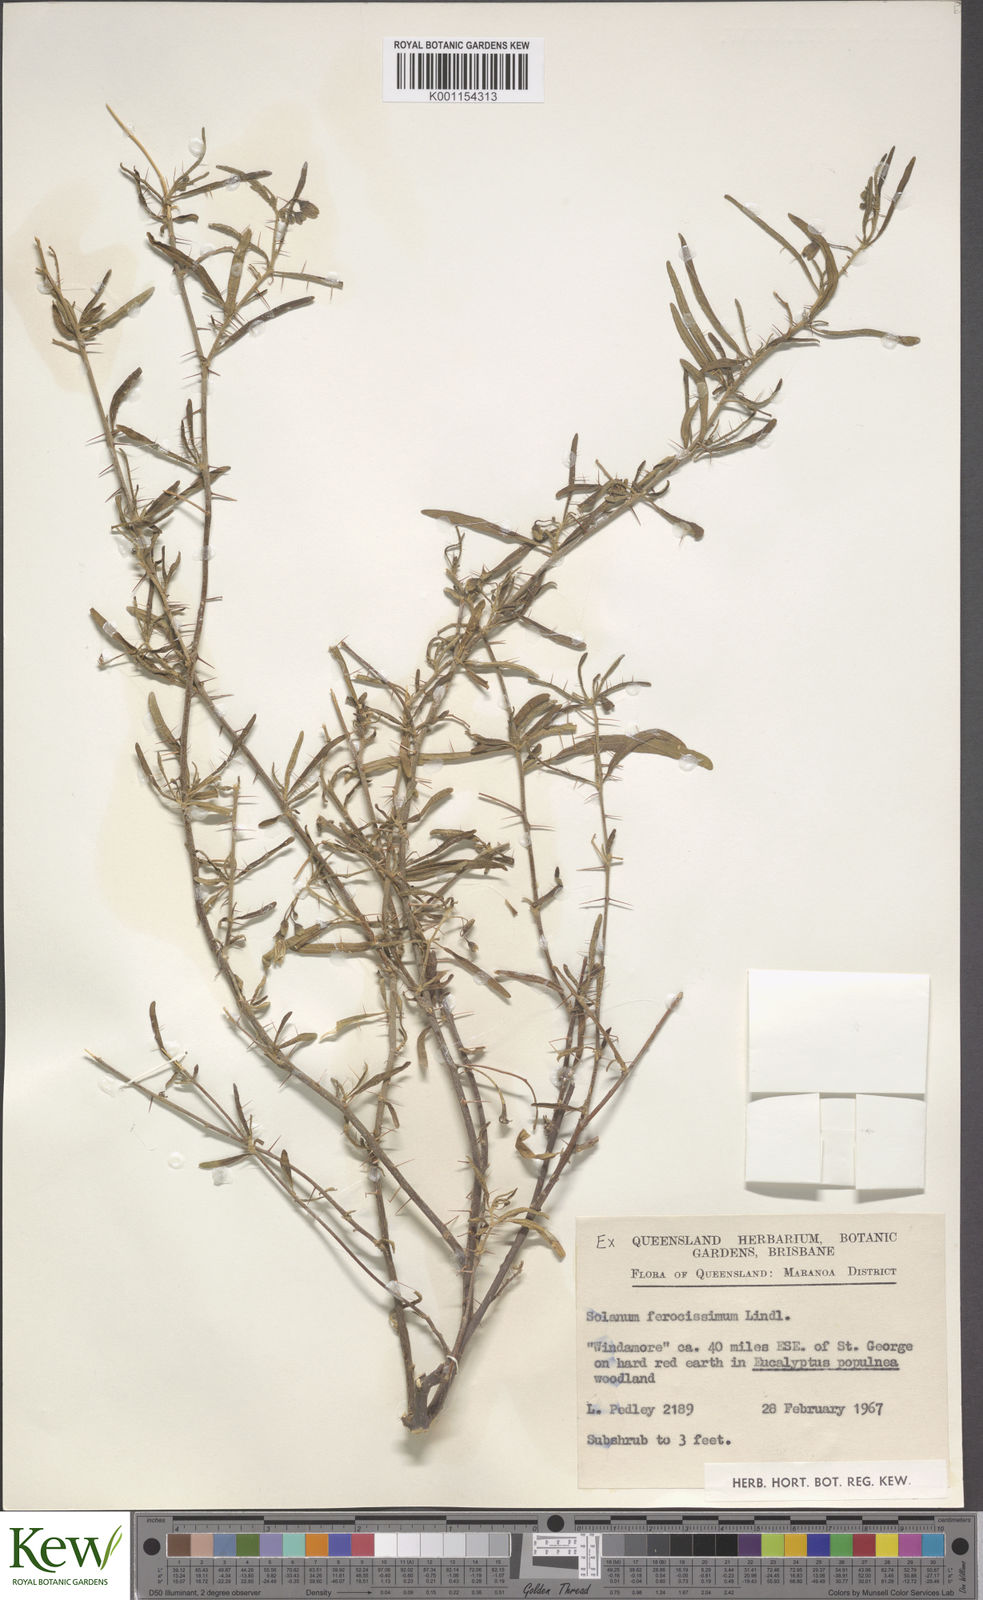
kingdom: Plantae
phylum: Tracheophyta
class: Magnoliopsida
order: Solanales
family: Solanaceae
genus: Solanum
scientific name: Solanum ferocissimum
